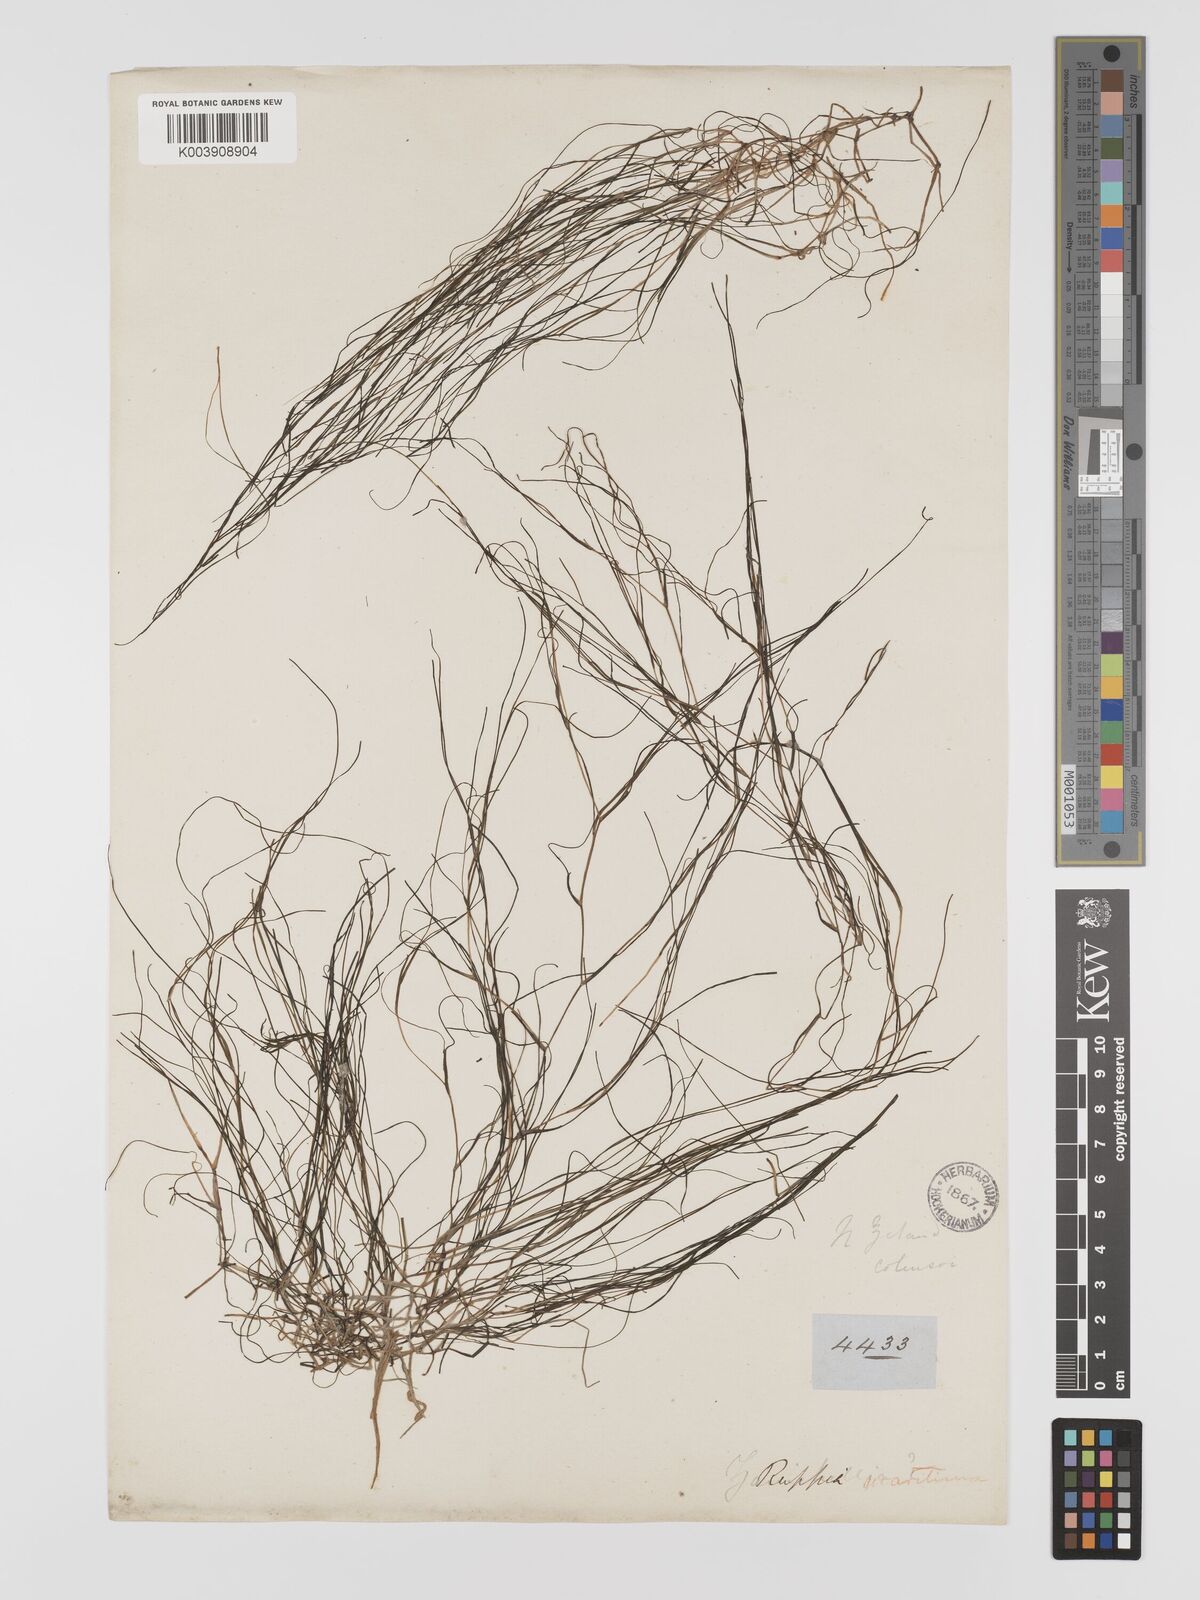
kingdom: Plantae
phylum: Tracheophyta
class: Liliopsida
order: Alismatales
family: Ruppiaceae
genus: Ruppia
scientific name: Ruppia maritima
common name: Beaked tasselweed
